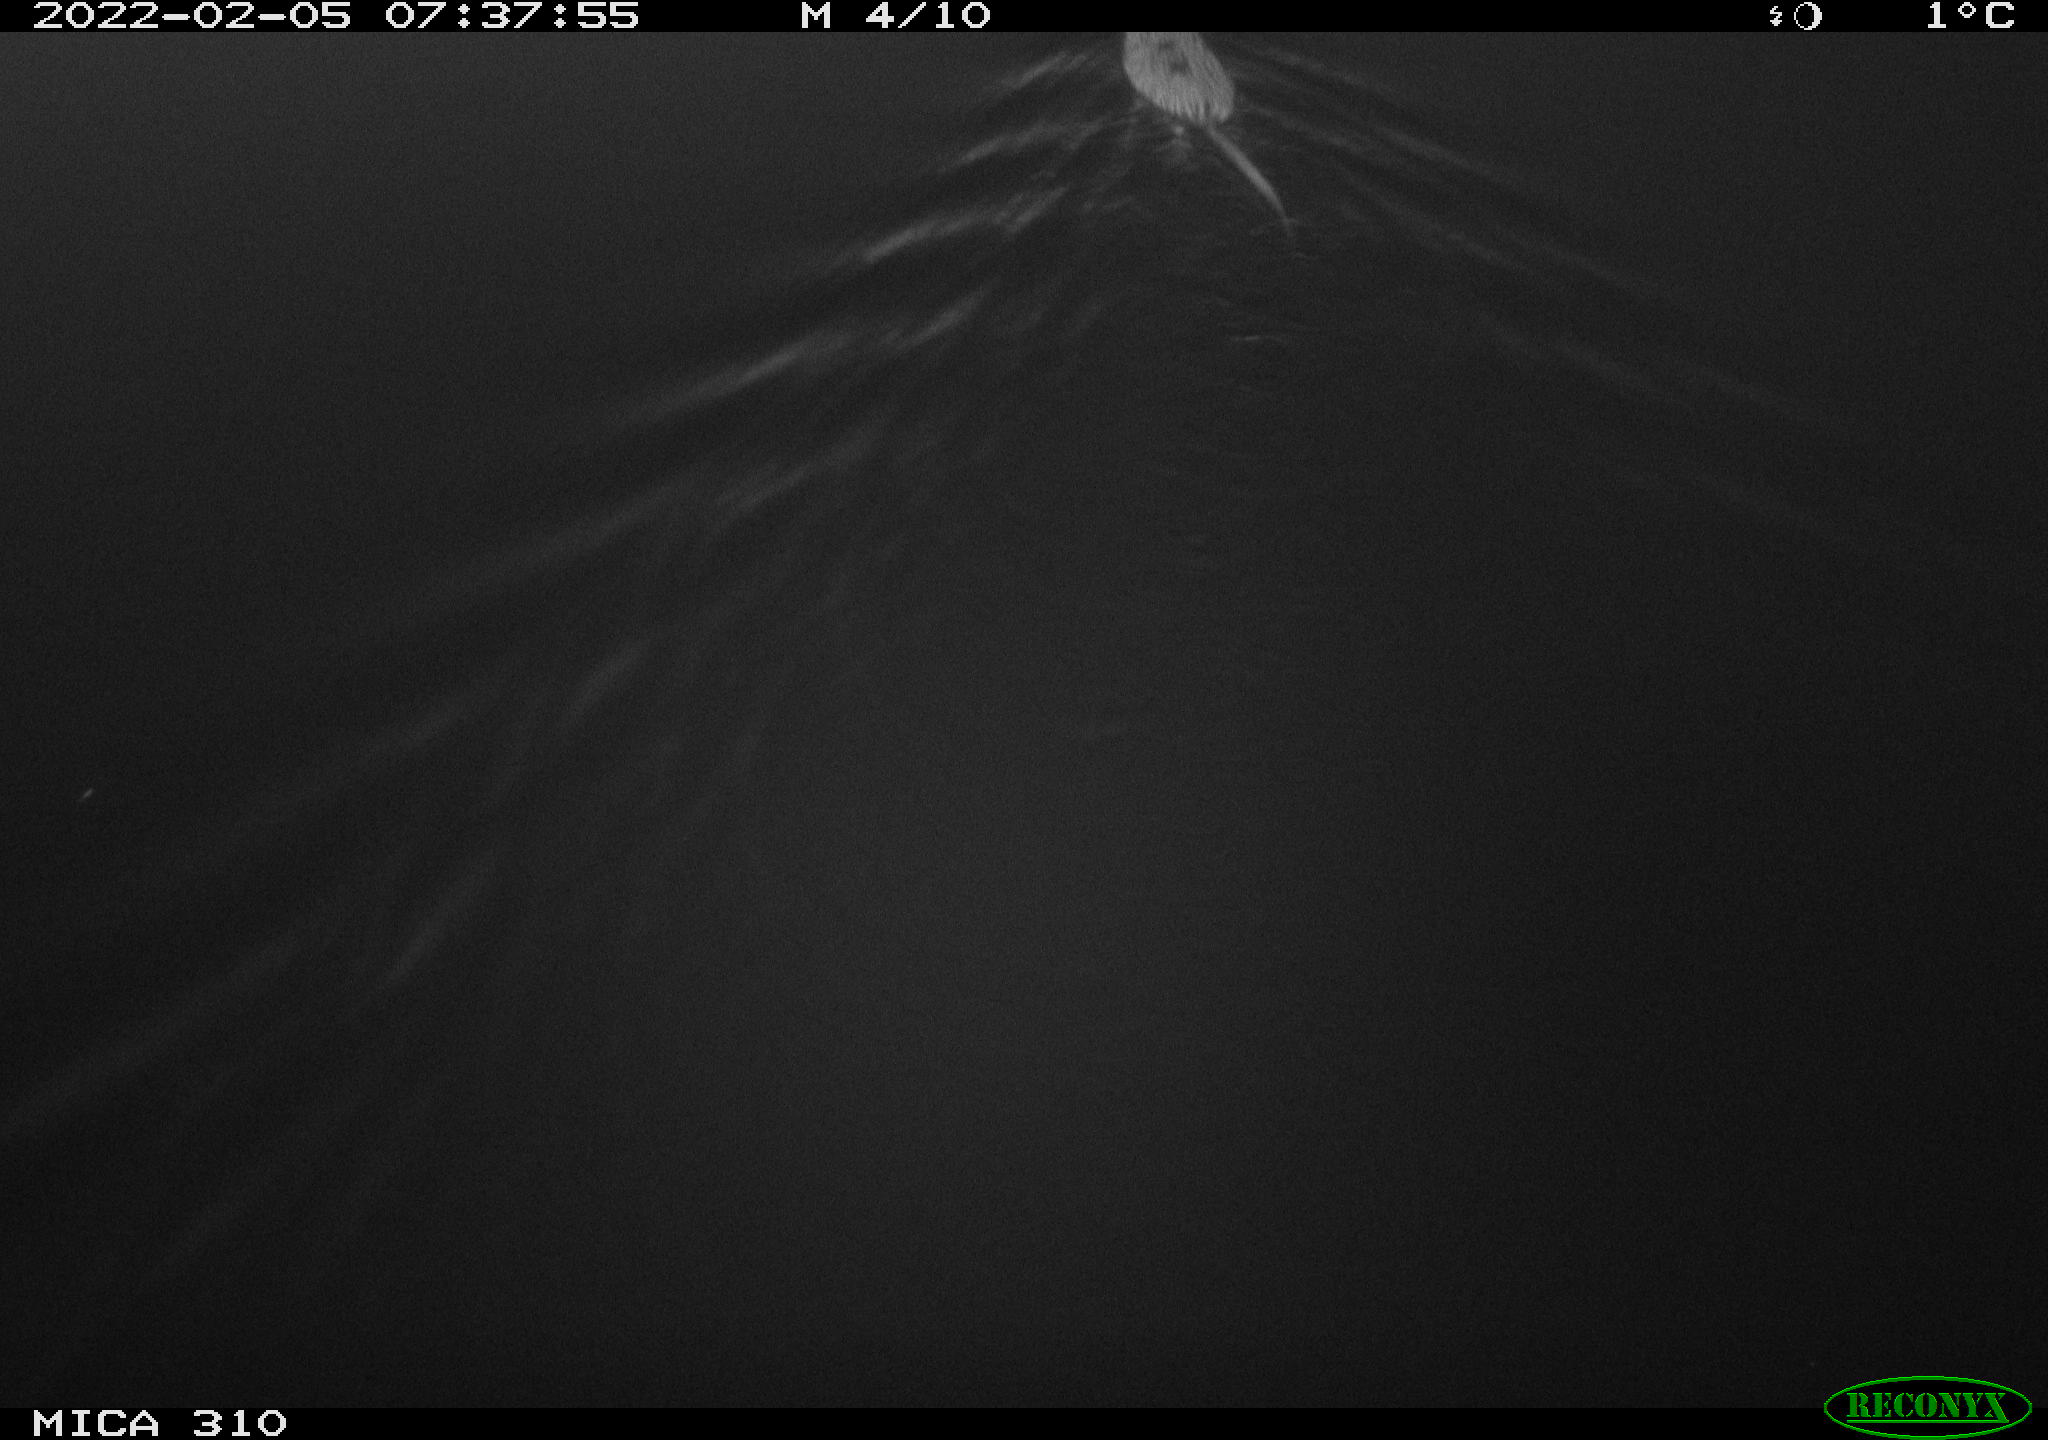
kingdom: Animalia
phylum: Chordata
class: Mammalia
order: Rodentia
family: Cricetidae
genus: Ondatra
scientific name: Ondatra zibethicus
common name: Muskrat
